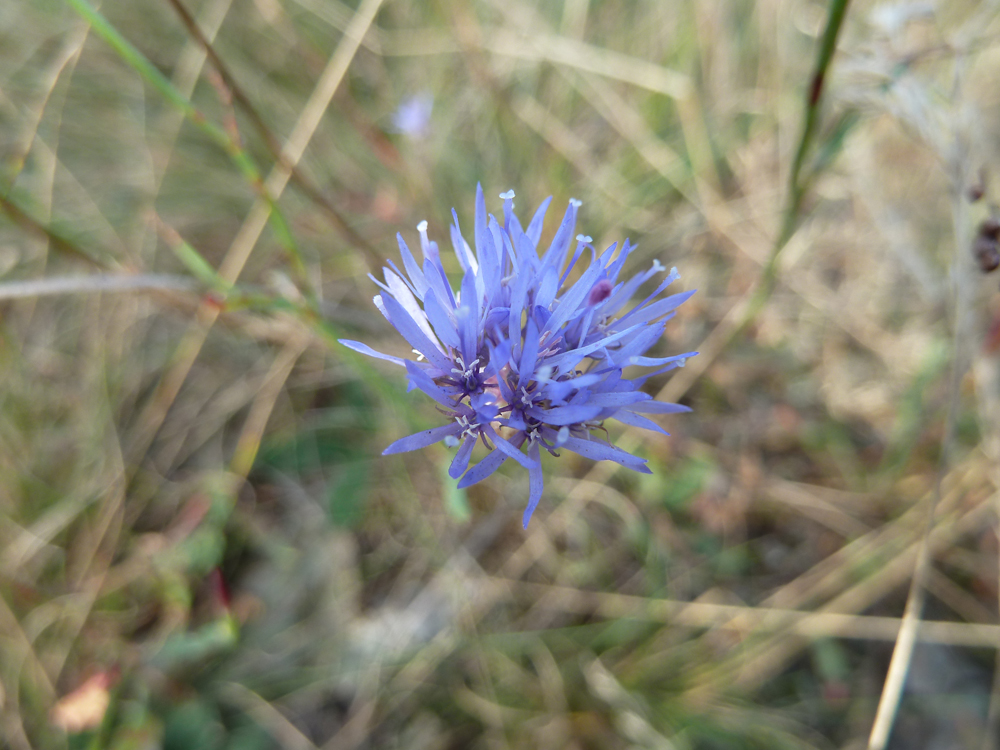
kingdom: Plantae
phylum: Tracheophyta
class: Magnoliopsida
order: Asterales
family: Campanulaceae
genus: Jasione
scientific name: Jasione montana
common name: Sheep's-bit
